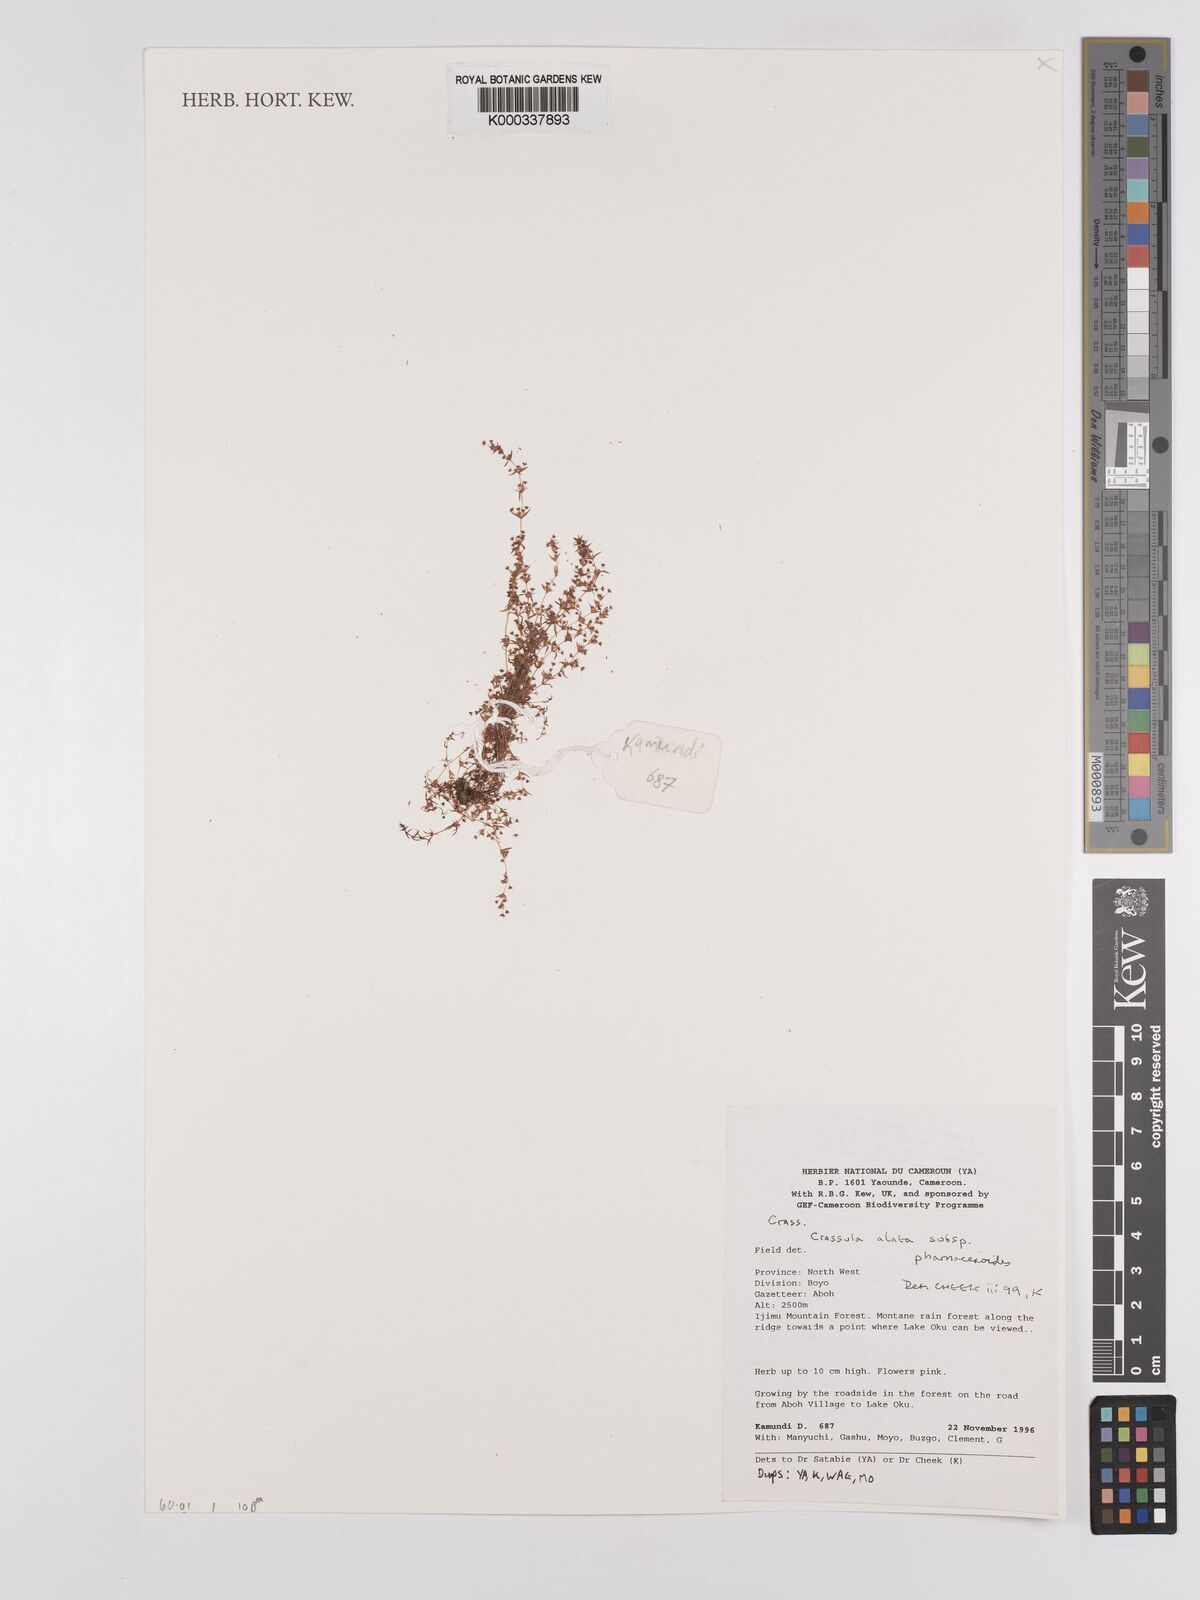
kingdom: Plantae
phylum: Tracheophyta
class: Magnoliopsida
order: Saxifragales
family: Crassulaceae
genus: Crassula
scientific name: Crassula alata
